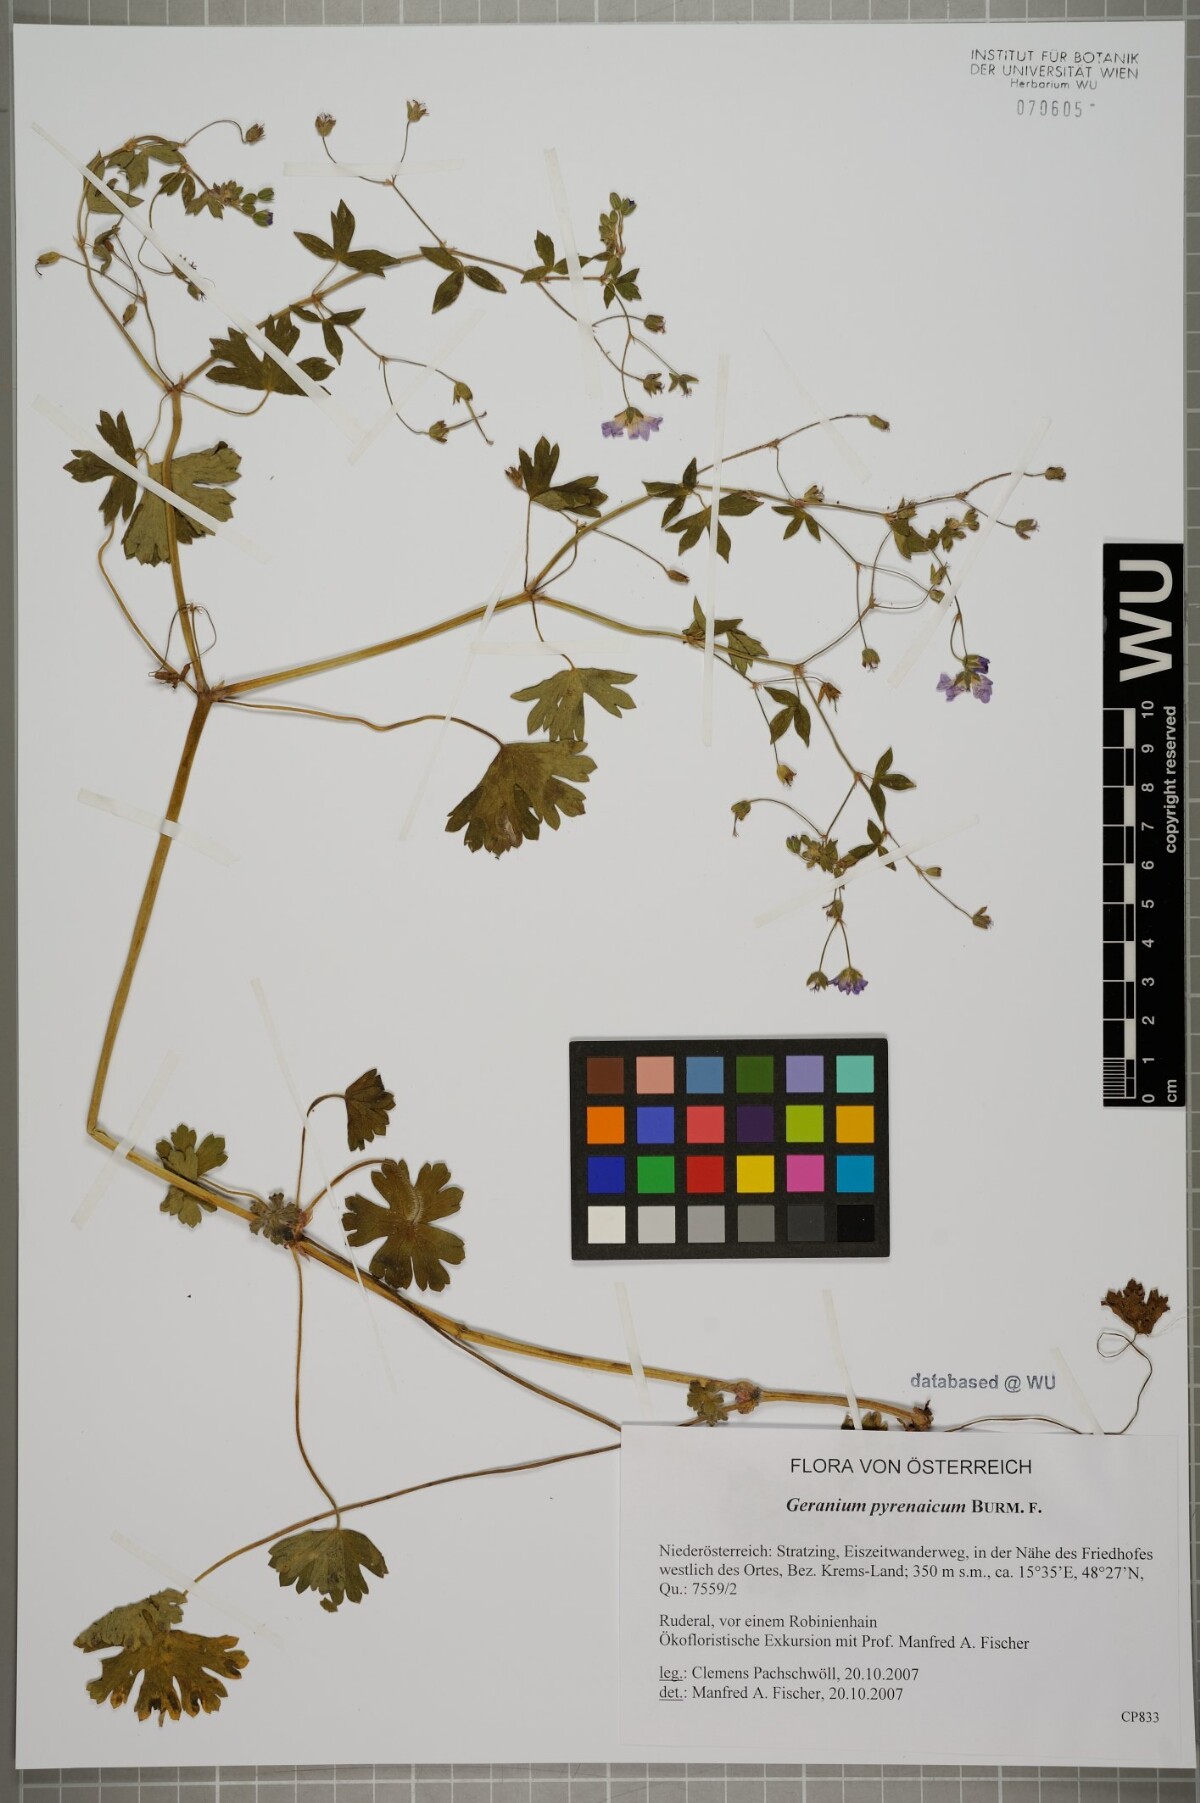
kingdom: Plantae
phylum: Tracheophyta
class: Magnoliopsida
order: Geraniales
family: Geraniaceae
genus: Geranium
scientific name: Geranium pyrenaicum
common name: Hedgerow crane's-bill
